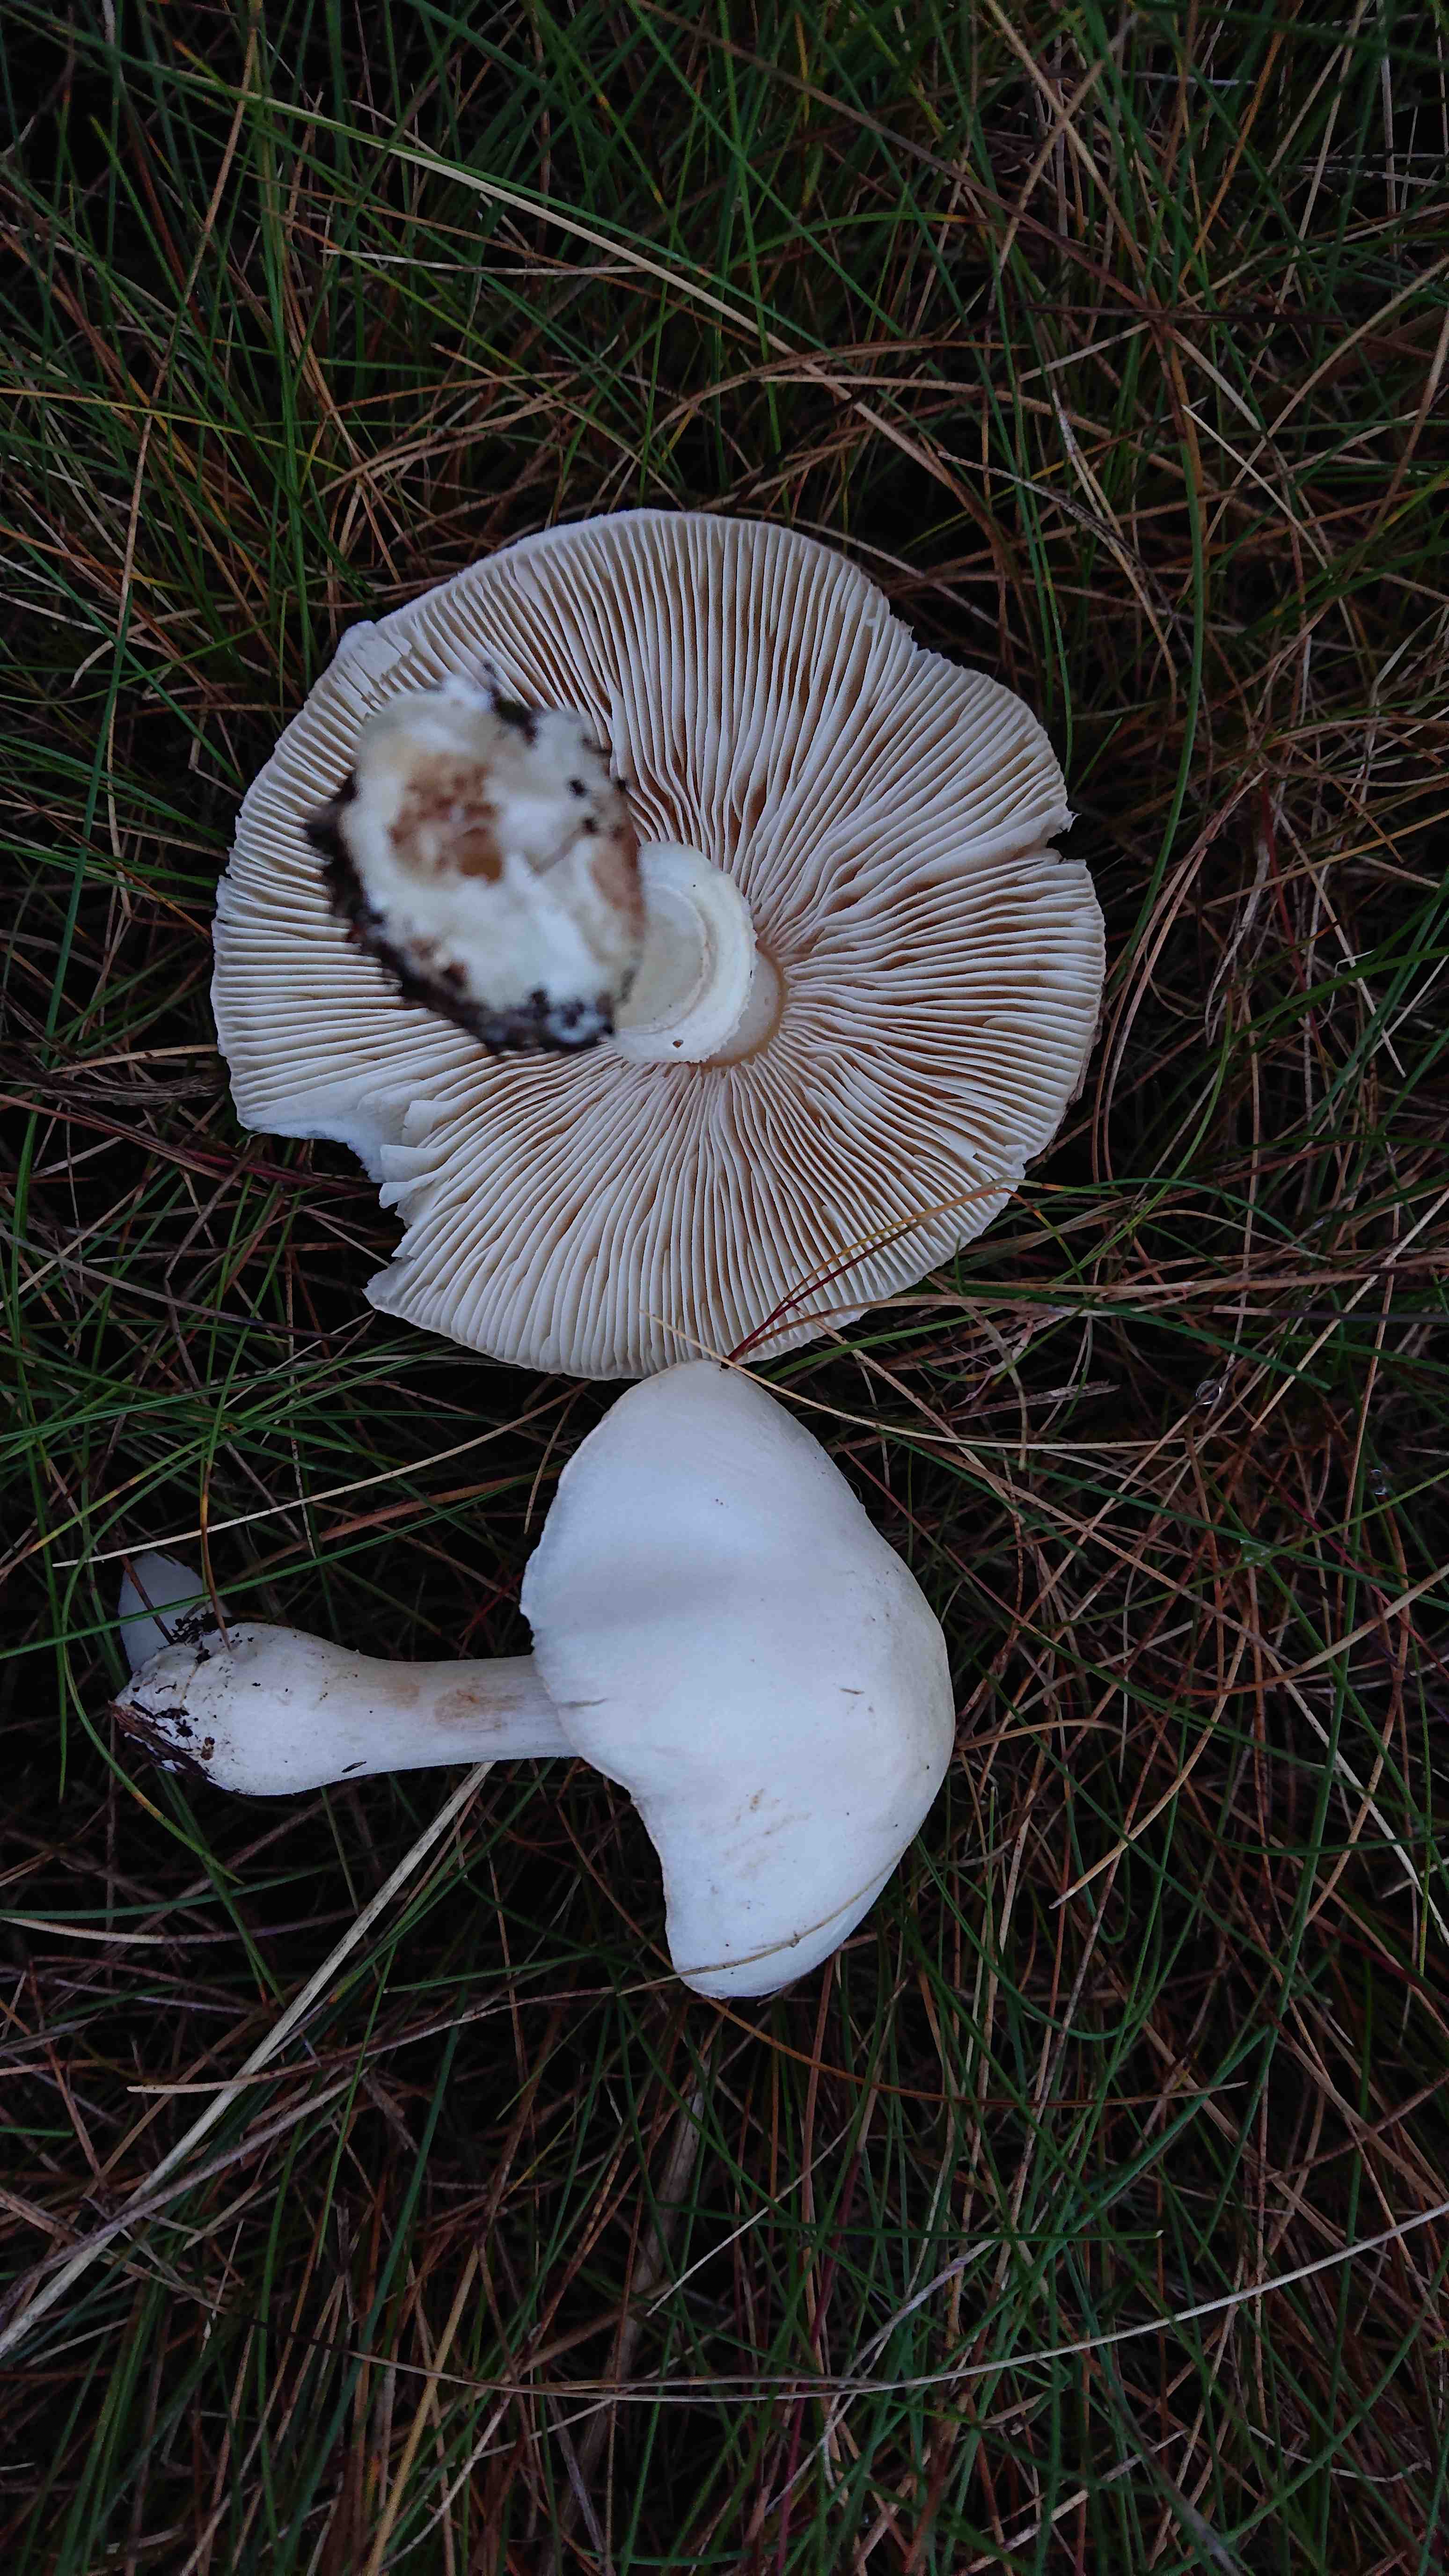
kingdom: Fungi
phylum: Basidiomycota
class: Agaricomycetes
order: Agaricales
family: Agaricaceae
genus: Leucoagaricus
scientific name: Leucoagaricus leucothites
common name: rosabladet silkehat
